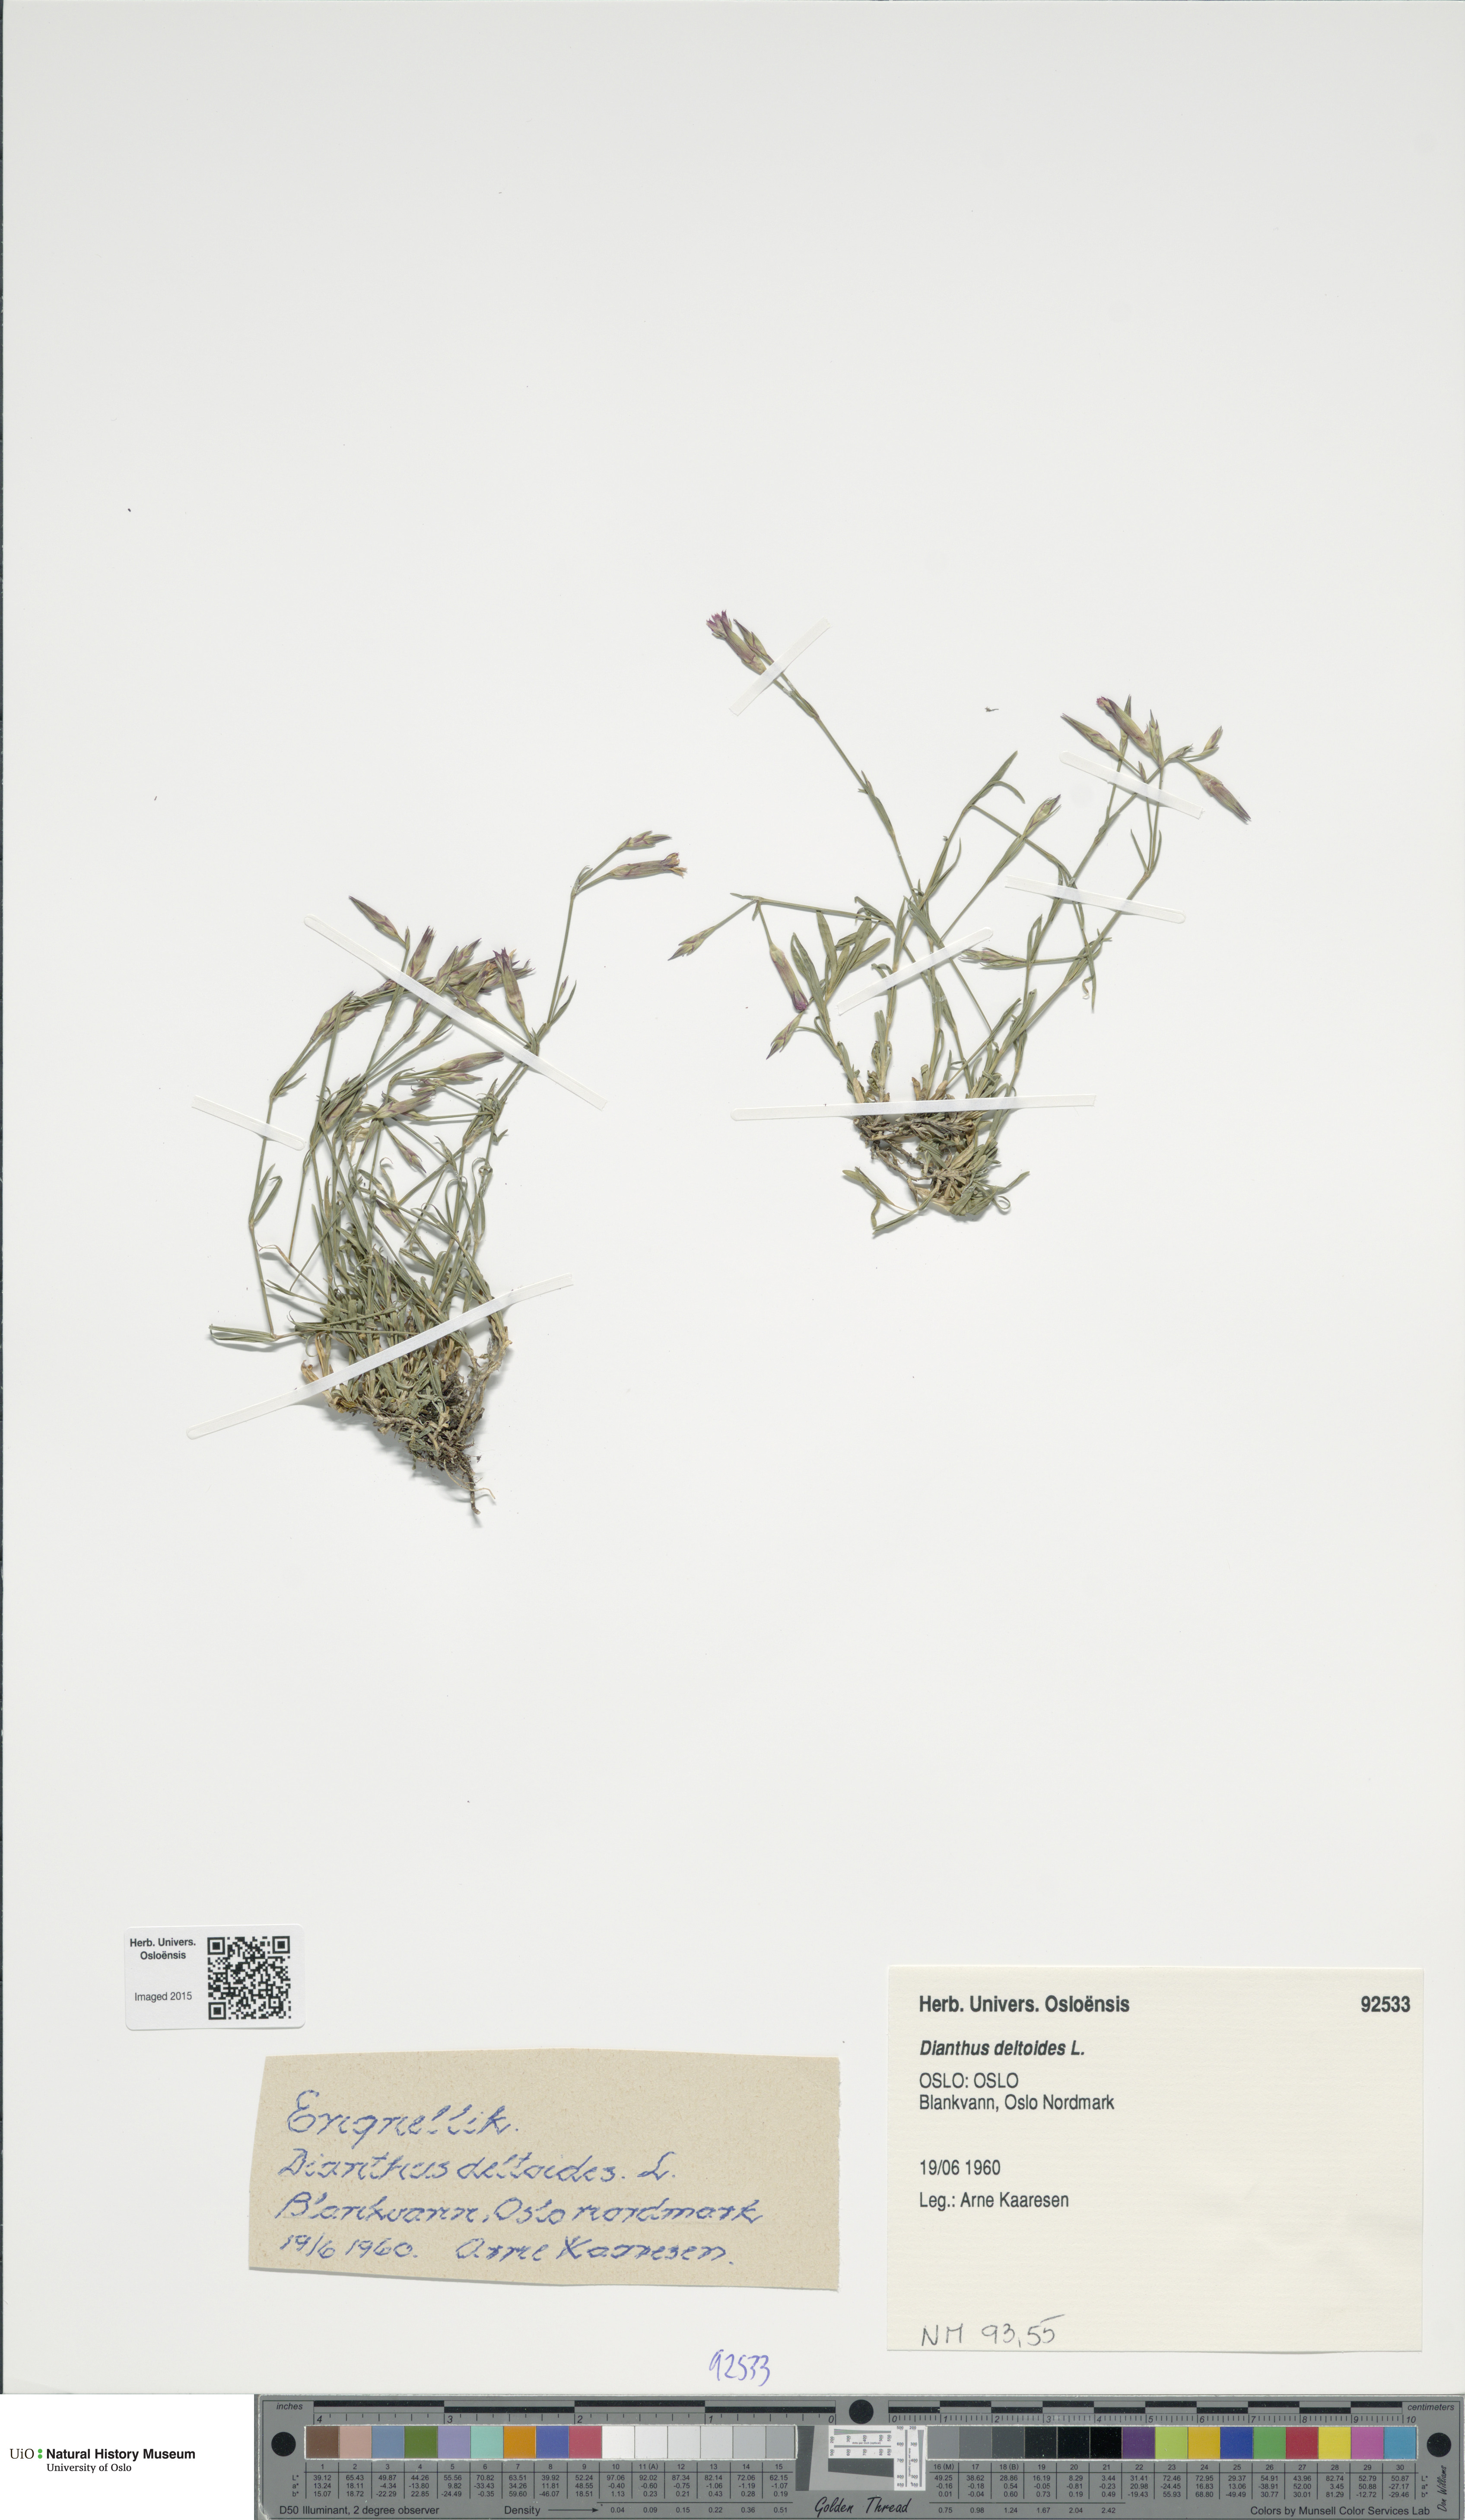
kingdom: Plantae
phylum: Tracheophyta
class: Magnoliopsida
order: Caryophyllales
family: Caryophyllaceae
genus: Dianthus
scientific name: Dianthus deltoides
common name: Maiden pink
